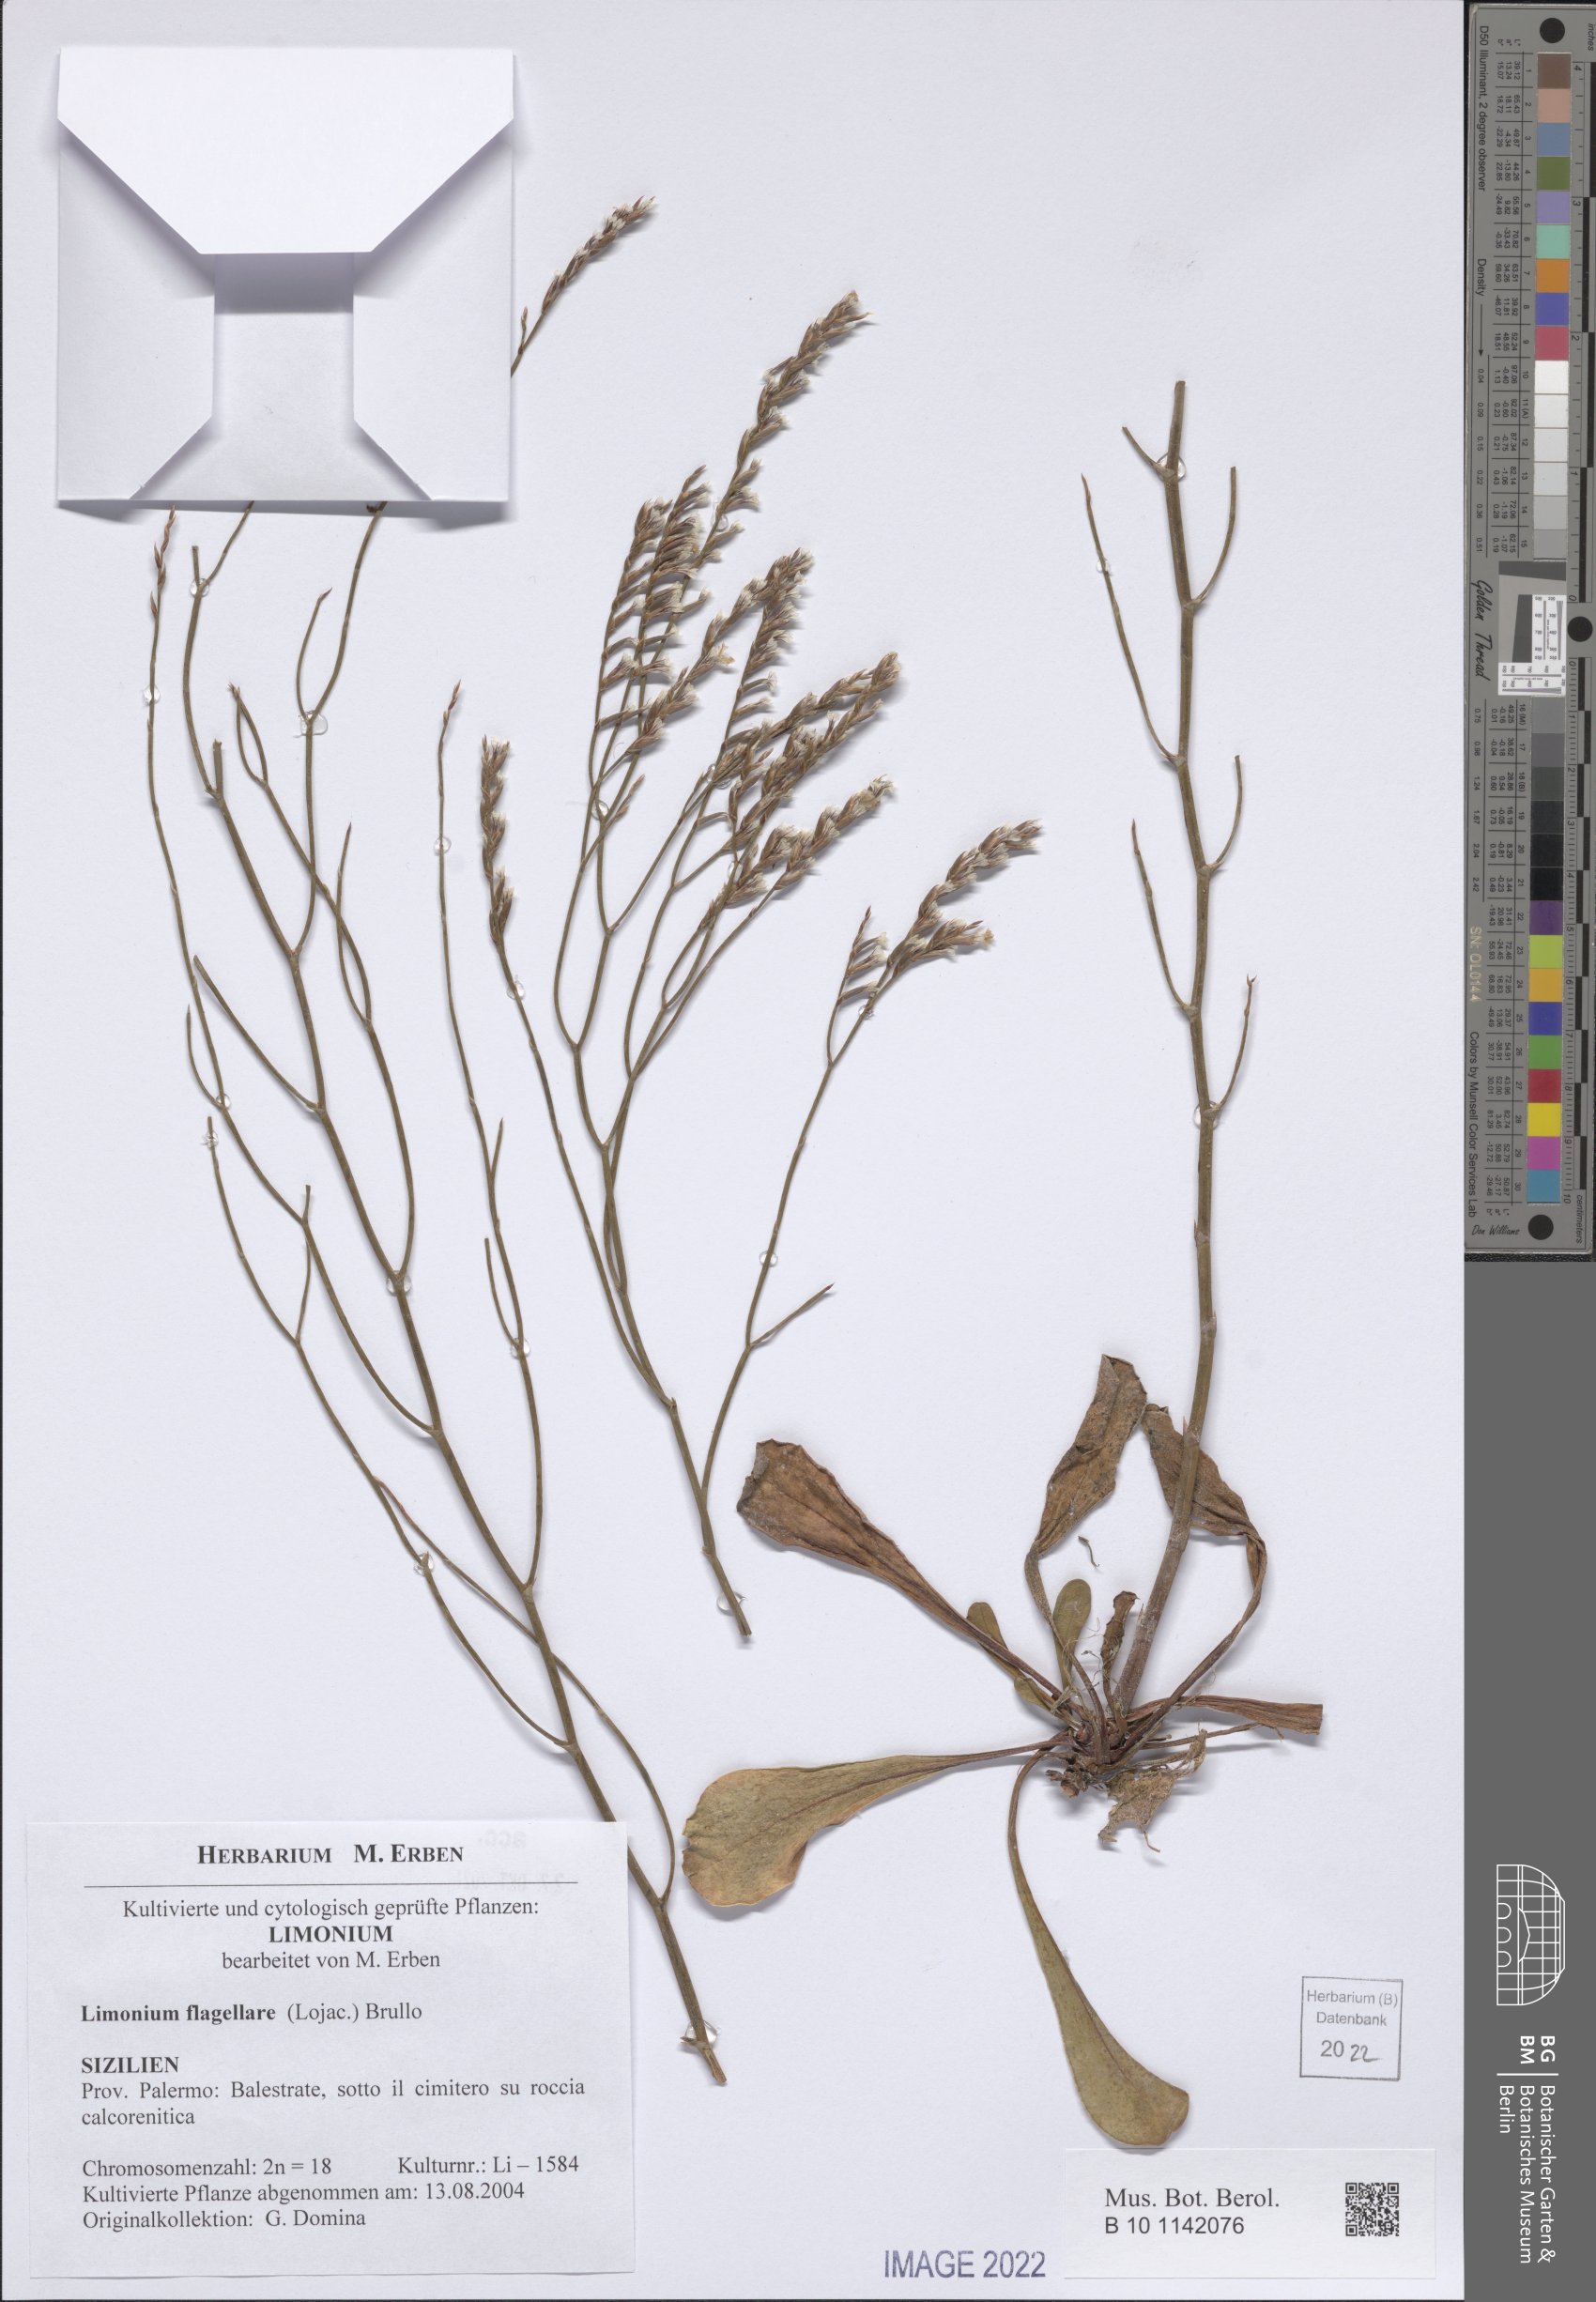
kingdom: Plantae
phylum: Tracheophyta
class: Magnoliopsida
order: Caryophyllales
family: Plumbaginaceae
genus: Limonium
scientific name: Limonium flagellare
